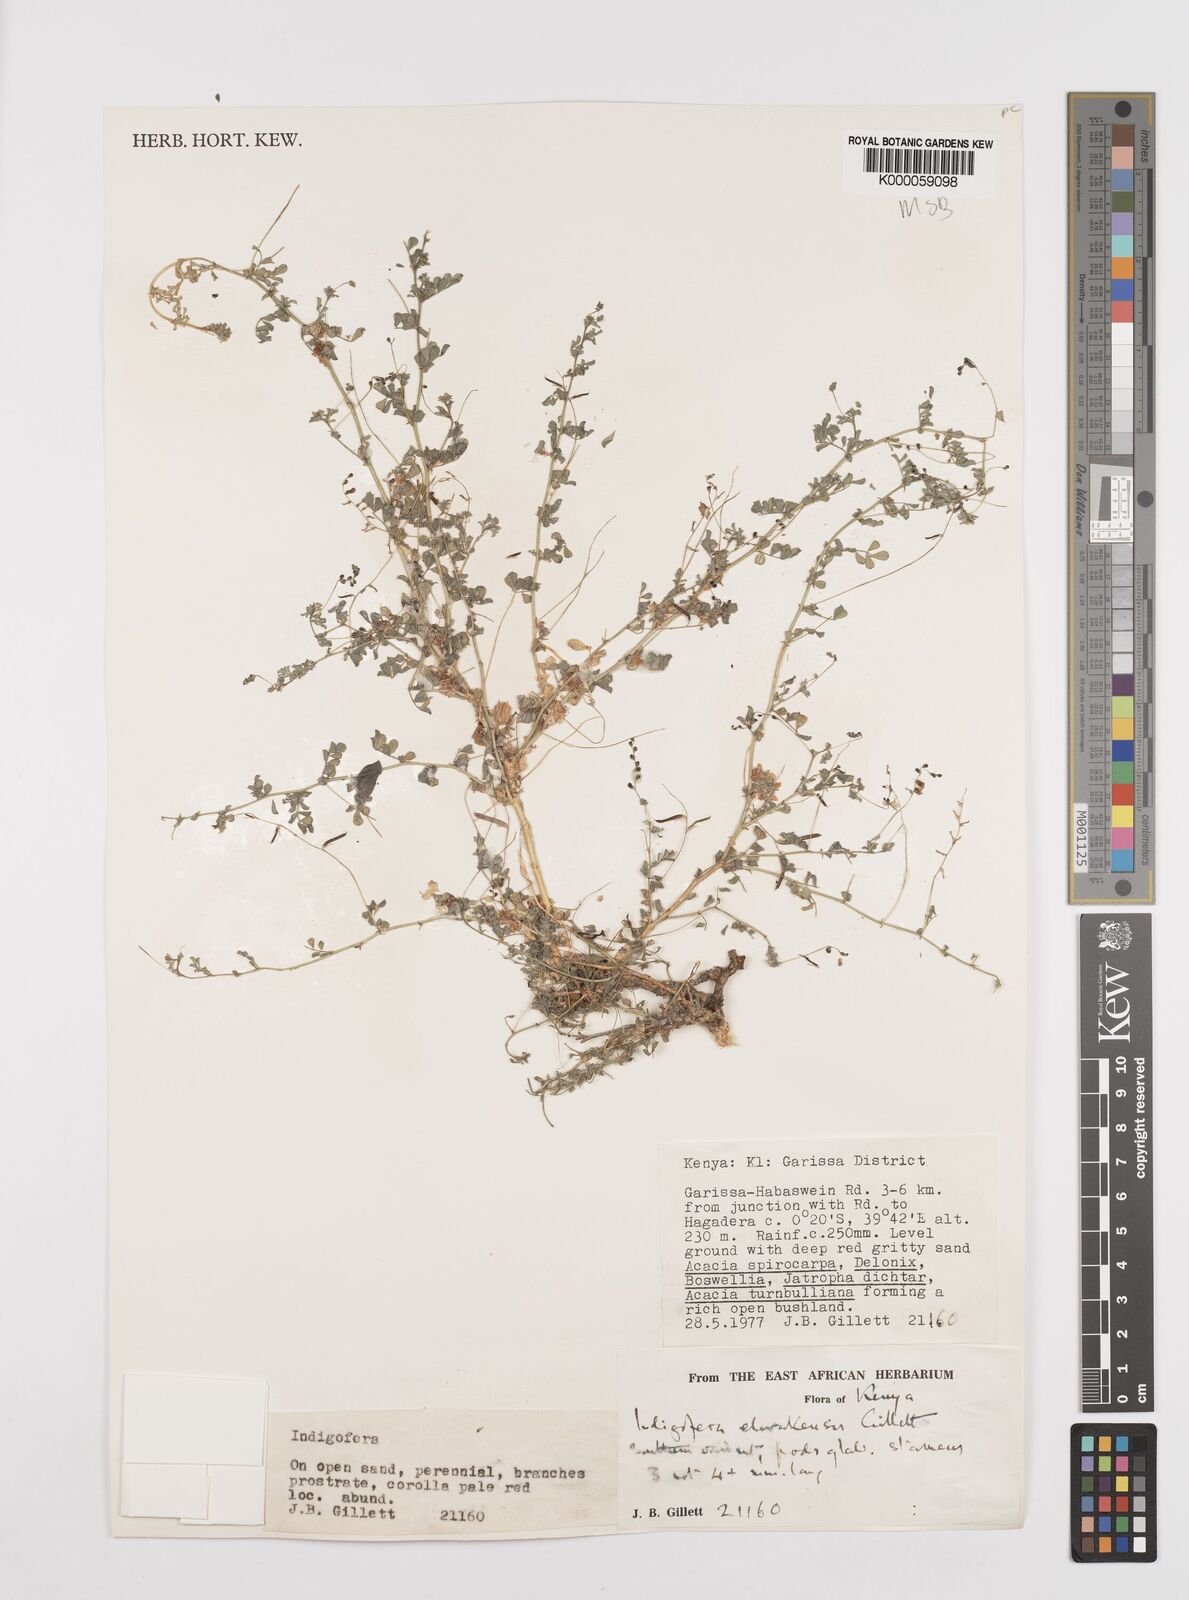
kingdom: Plantae
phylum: Tracheophyta
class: Magnoliopsida
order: Fabales
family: Fabaceae
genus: Indigofera
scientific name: Indigofera elwakensis
